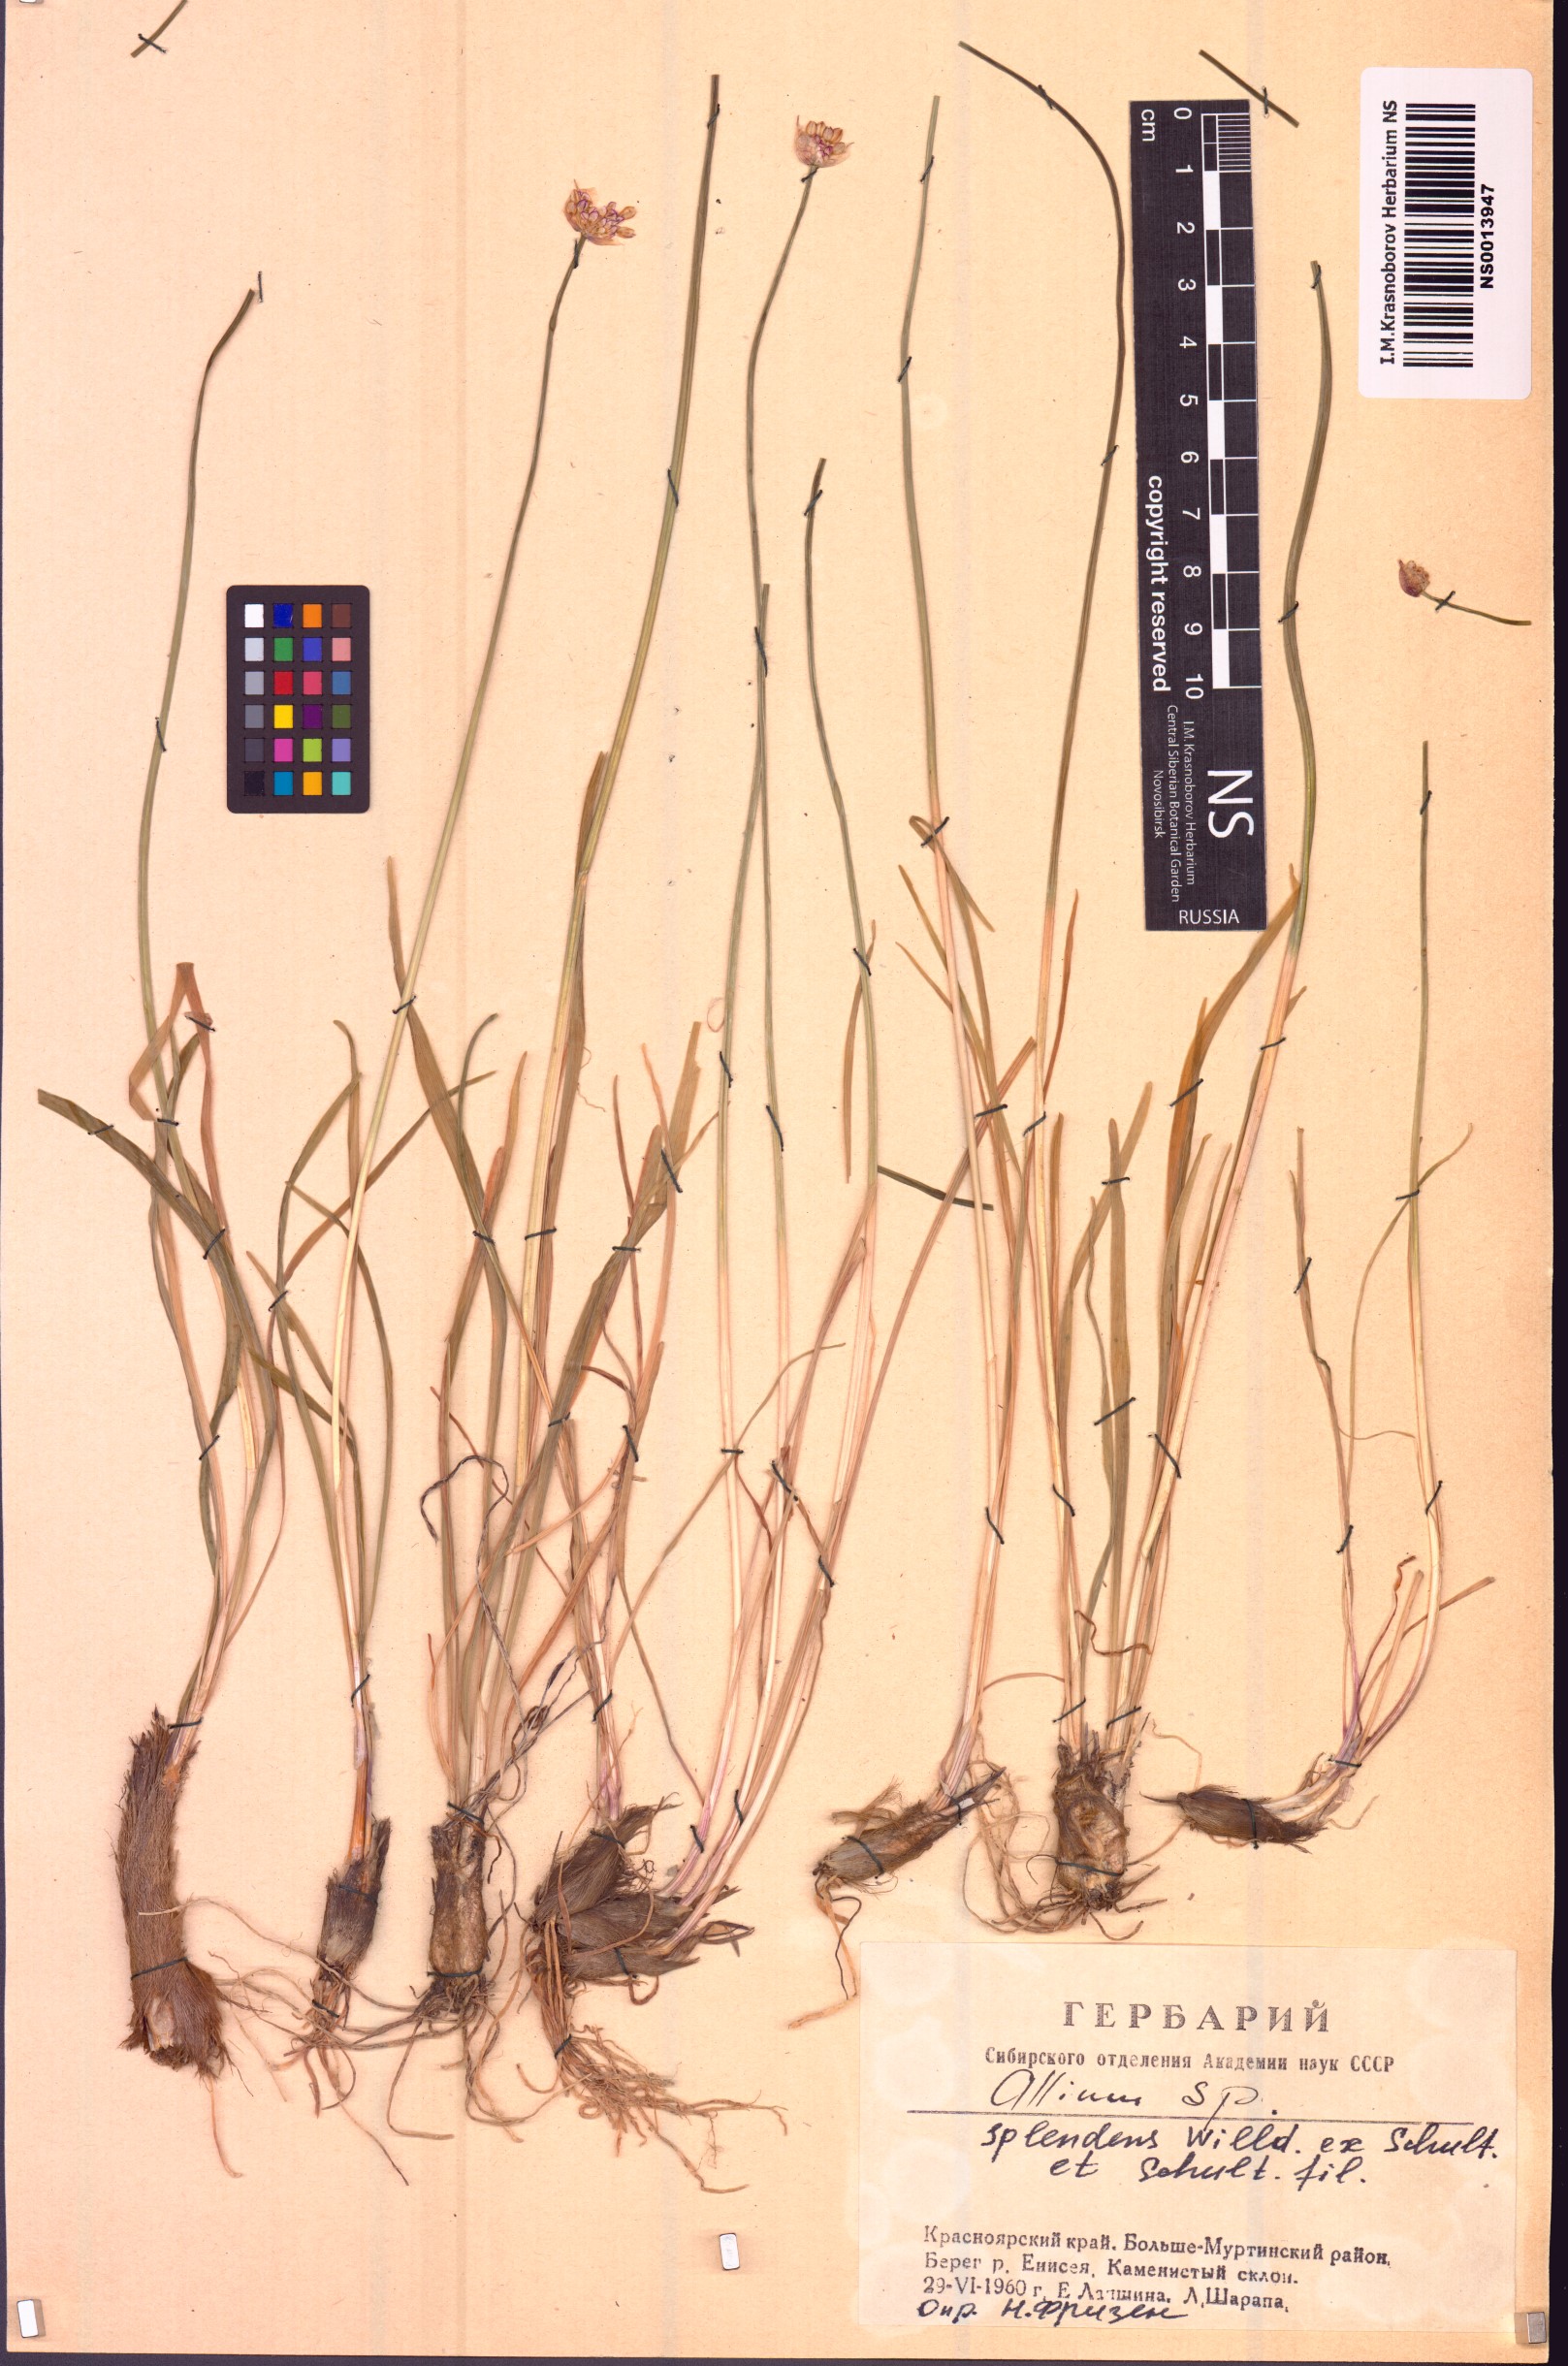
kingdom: Plantae
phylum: Tracheophyta
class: Liliopsida
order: Asparagales
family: Amaryllidaceae
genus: Allium
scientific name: Allium splendens
